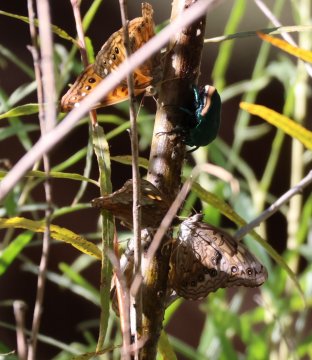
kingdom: Animalia
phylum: Arthropoda
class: Insecta
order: Lepidoptera
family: Nymphalidae
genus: Asterocampa
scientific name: Asterocampa celtis
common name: Hackberry Emperor
